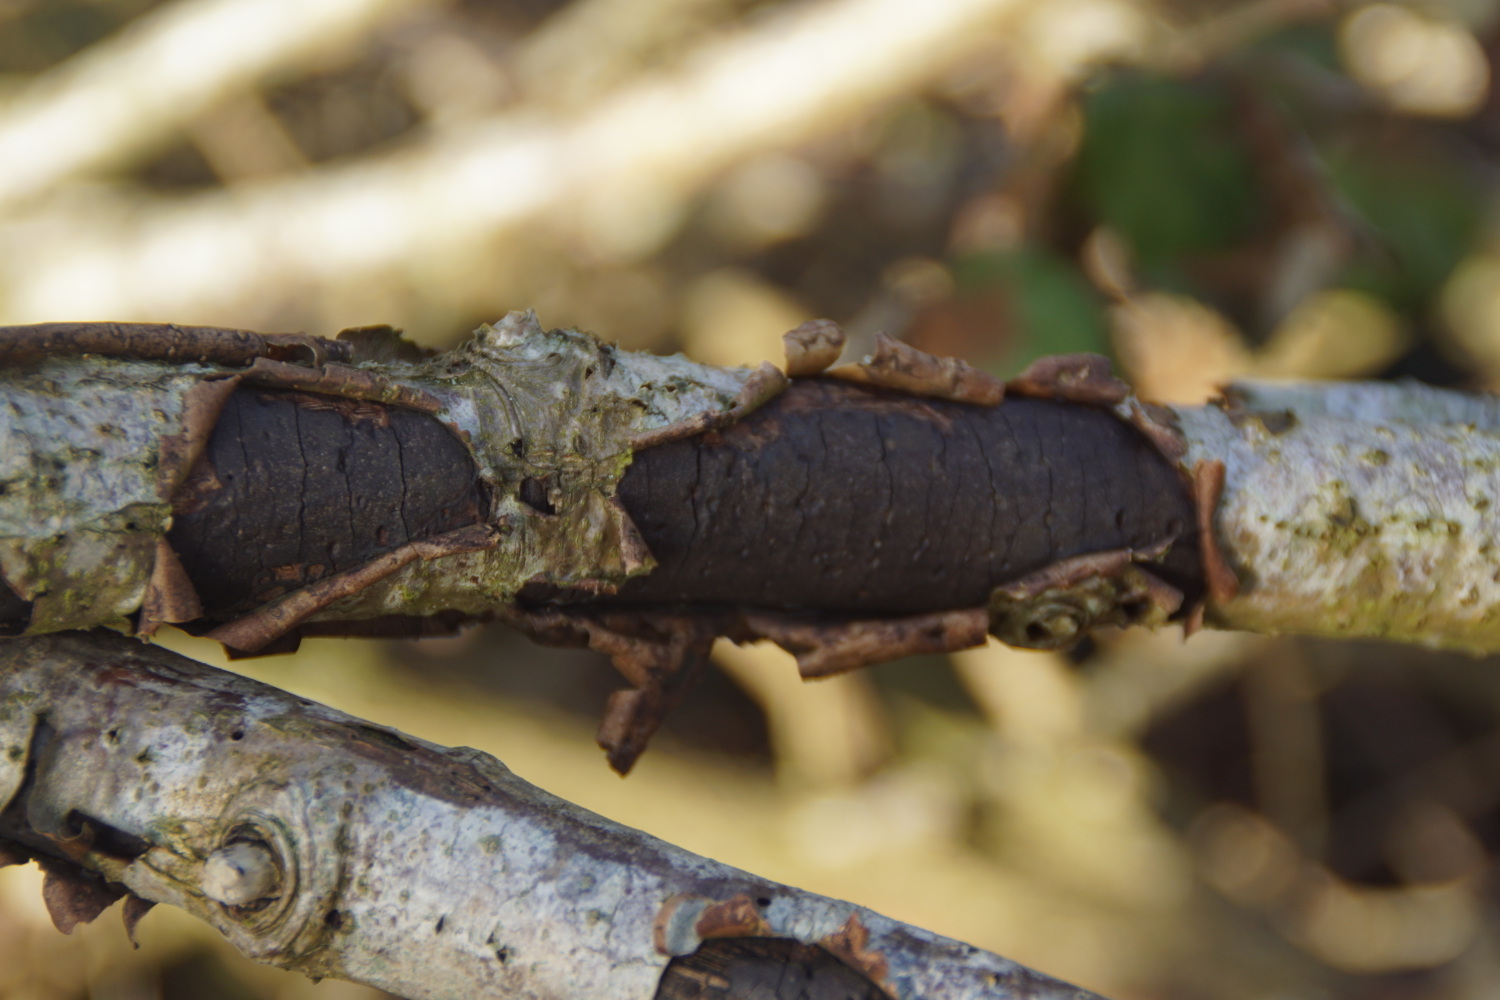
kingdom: Fungi
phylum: Ascomycota
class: Sordariomycetes
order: Xylariales
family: Diatrypaceae
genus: Diatrype
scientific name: Diatrype stigma
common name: udbredt kulskorpe
